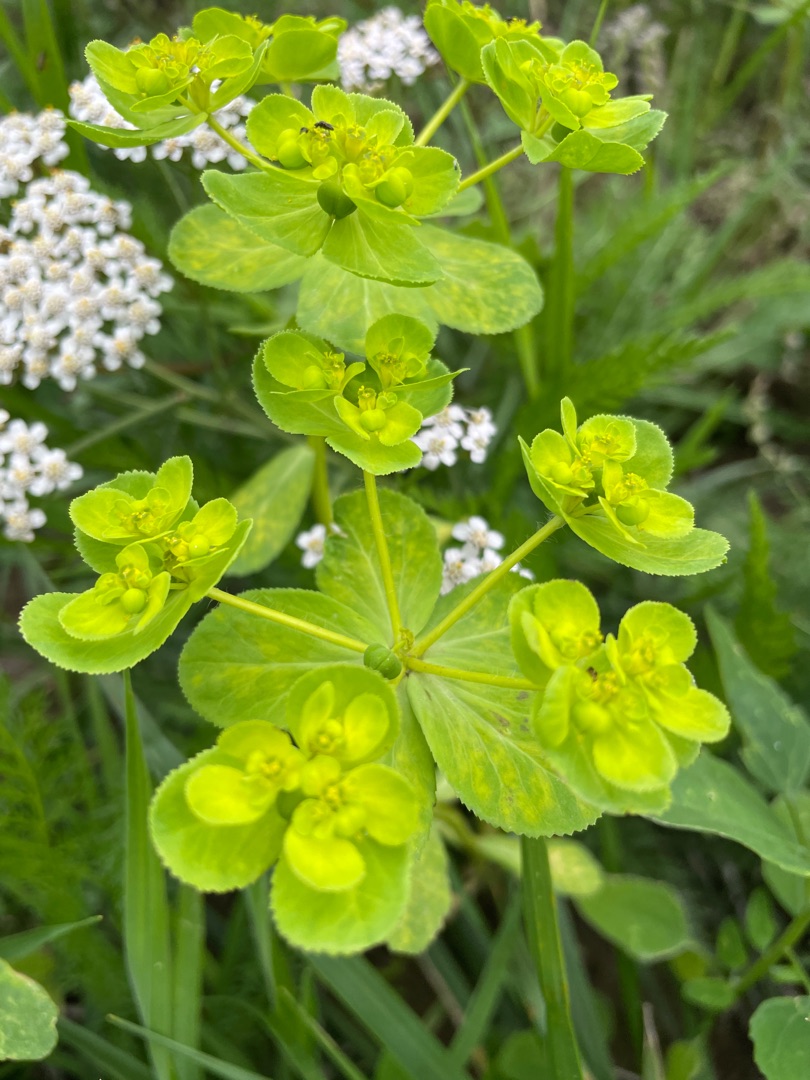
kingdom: Plantae
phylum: Tracheophyta
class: Magnoliopsida
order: Malpighiales
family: Euphorbiaceae
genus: Euphorbia
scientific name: Euphorbia helioscopia
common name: Skærm-vortemælk
